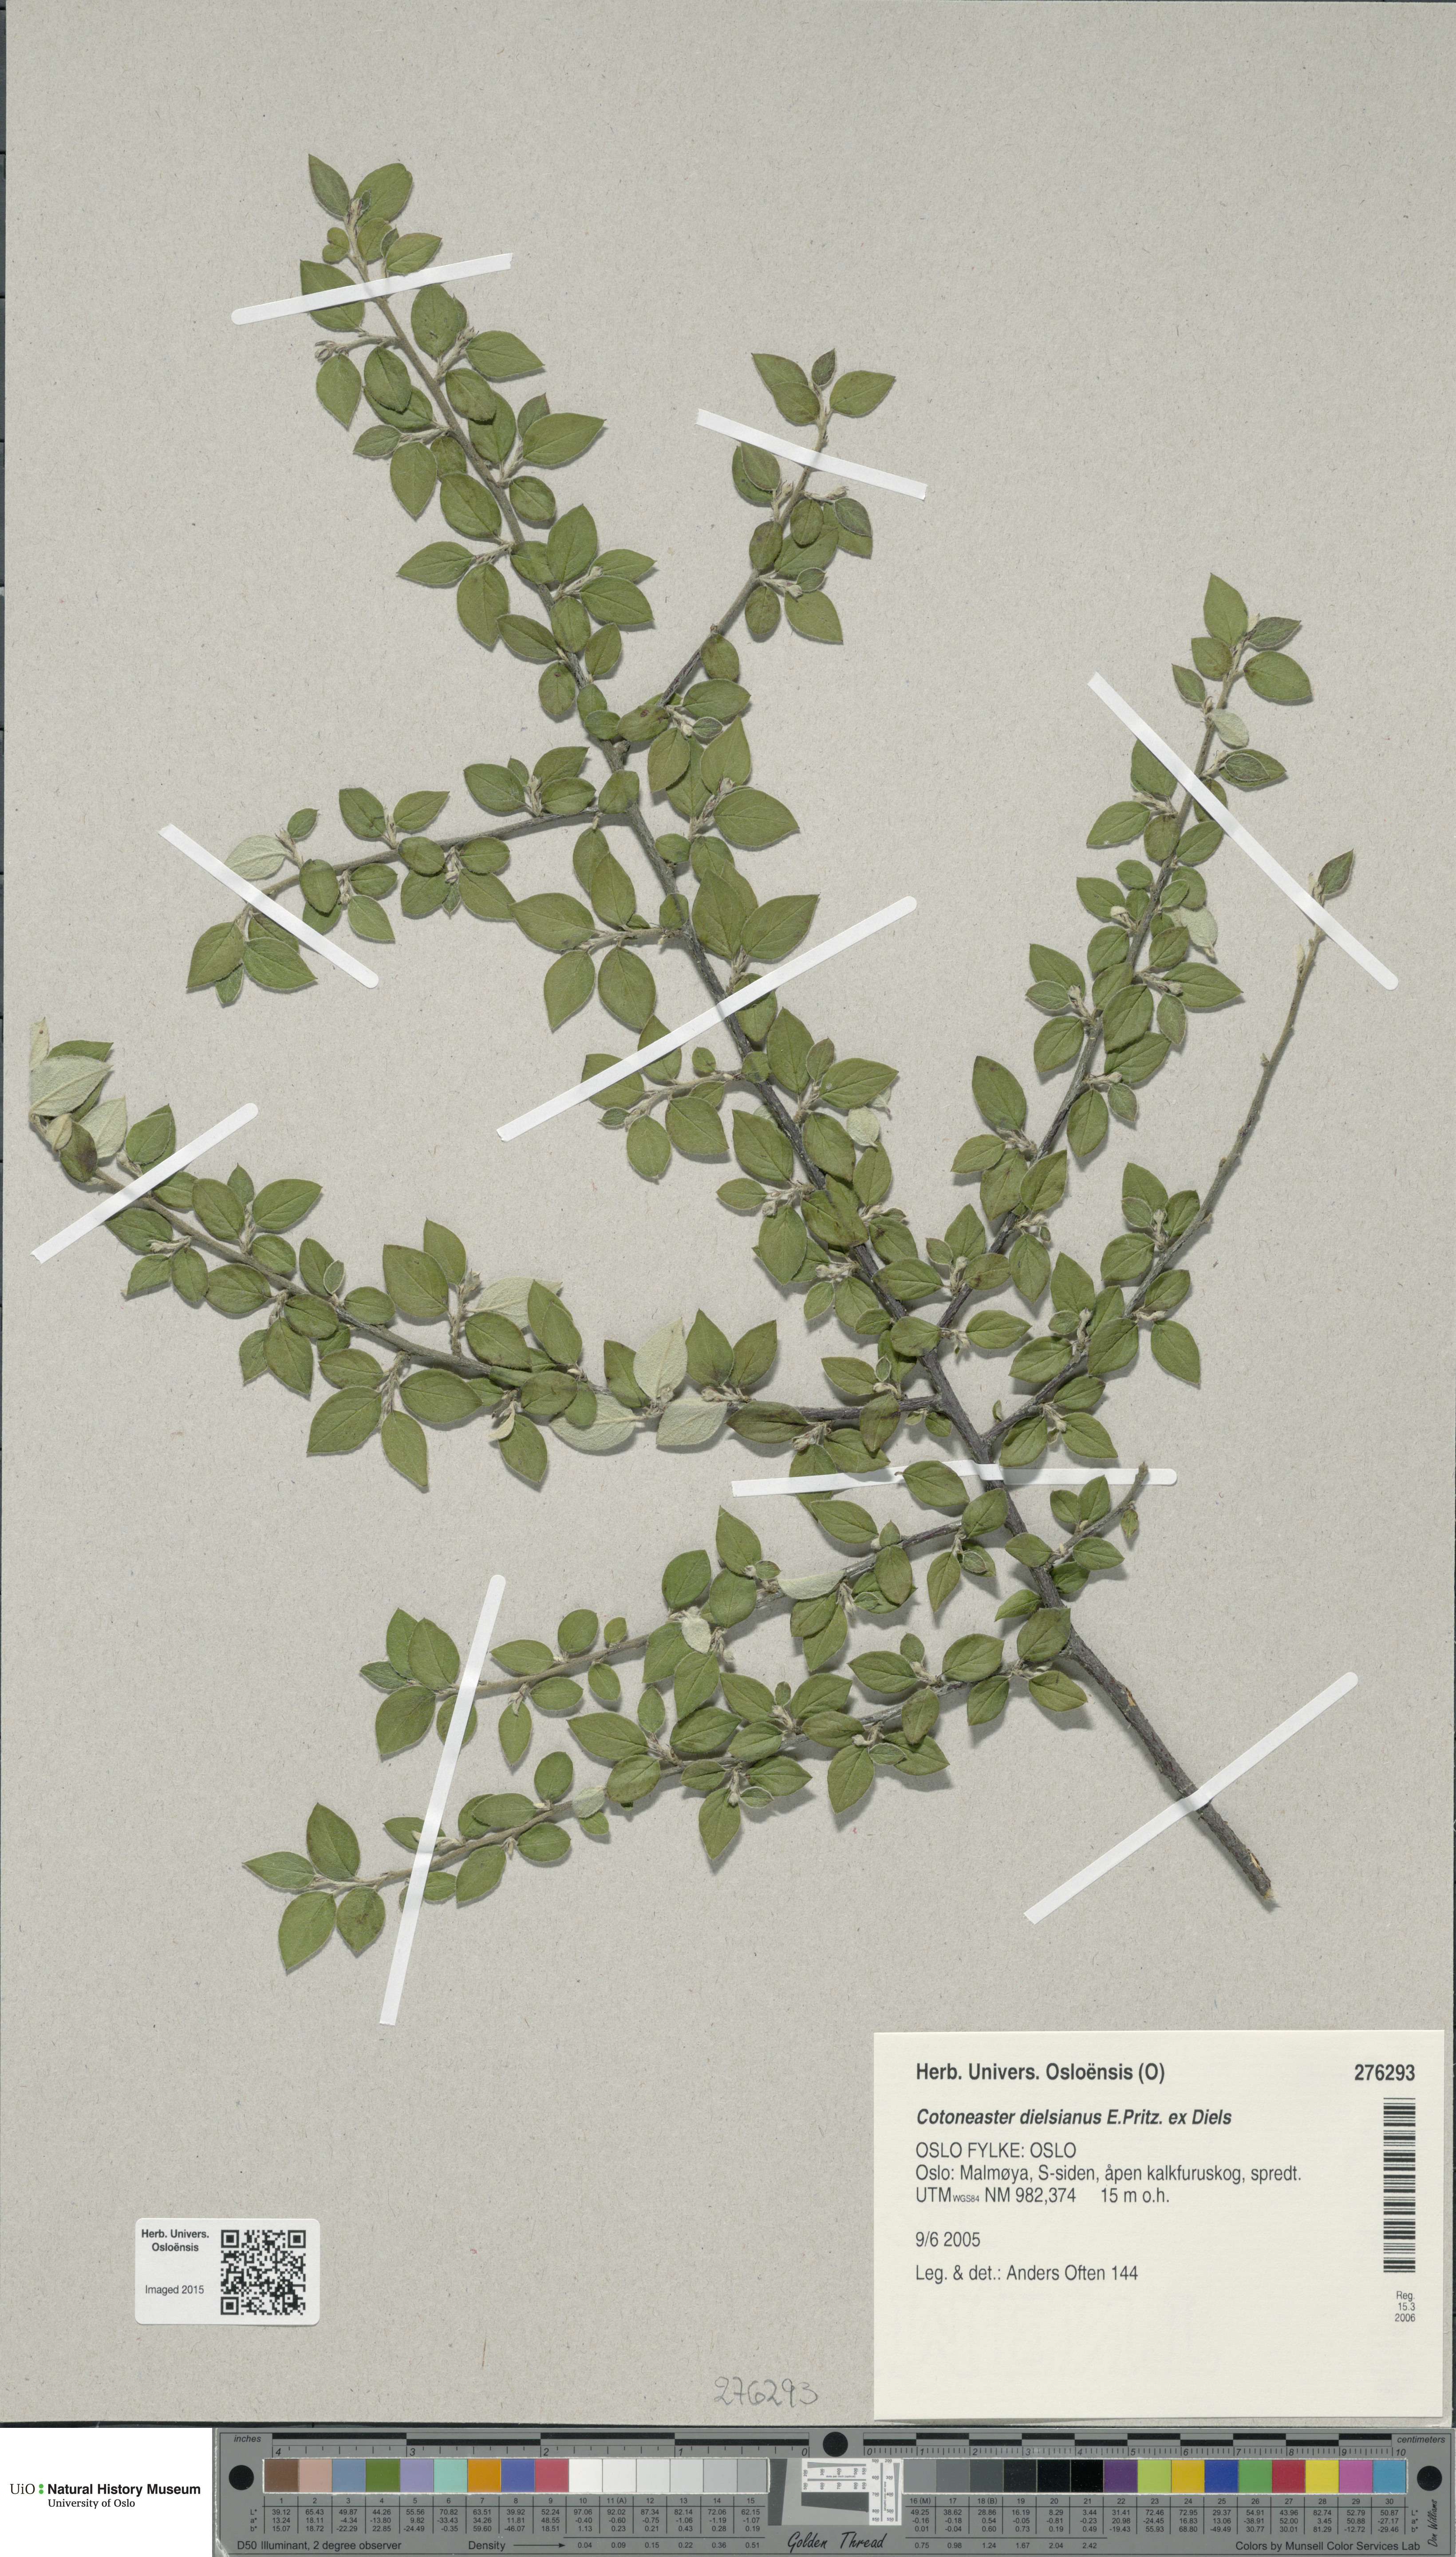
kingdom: Plantae
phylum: Tracheophyta
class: Magnoliopsida
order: Rosales
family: Rosaceae
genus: Cotoneaster
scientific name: Cotoneaster dielsianus
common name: Diels's cotoneaster
